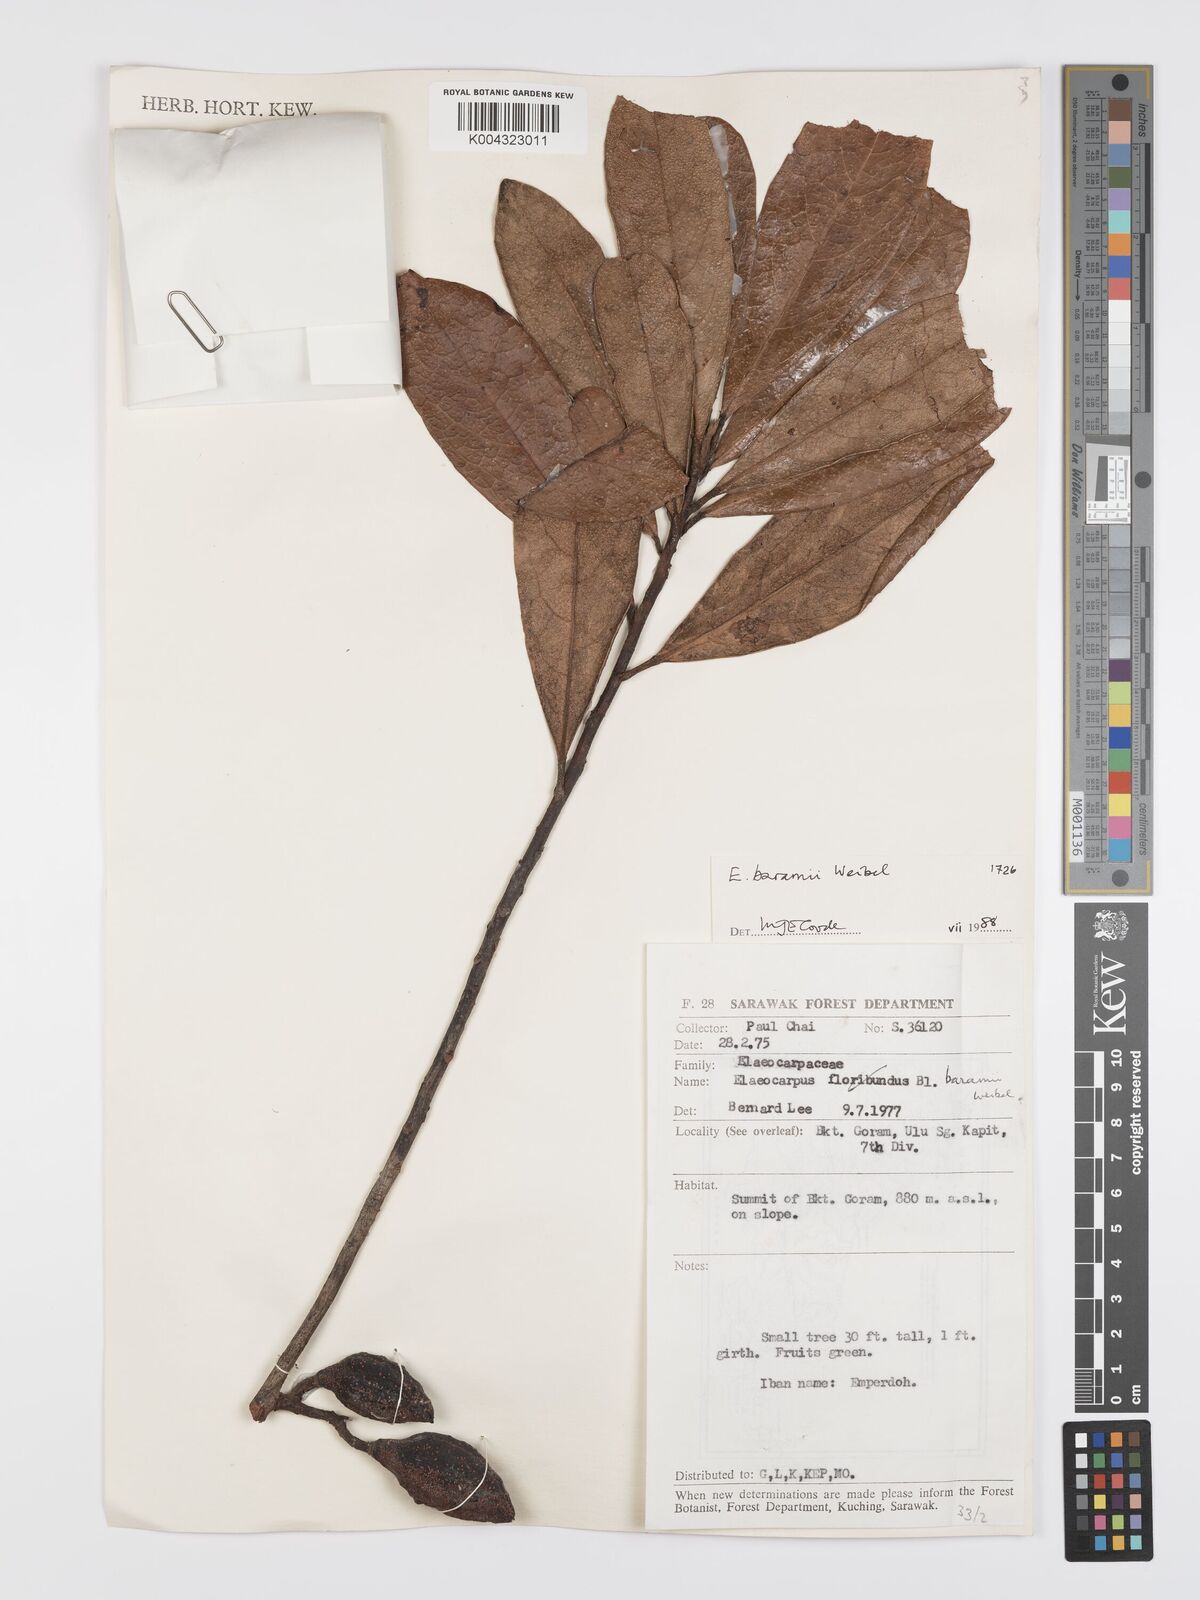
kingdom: Plantae
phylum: Tracheophyta
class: Magnoliopsida
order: Oxalidales
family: Elaeocarpaceae
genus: Elaeocarpus
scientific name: Elaeocarpus baramii
